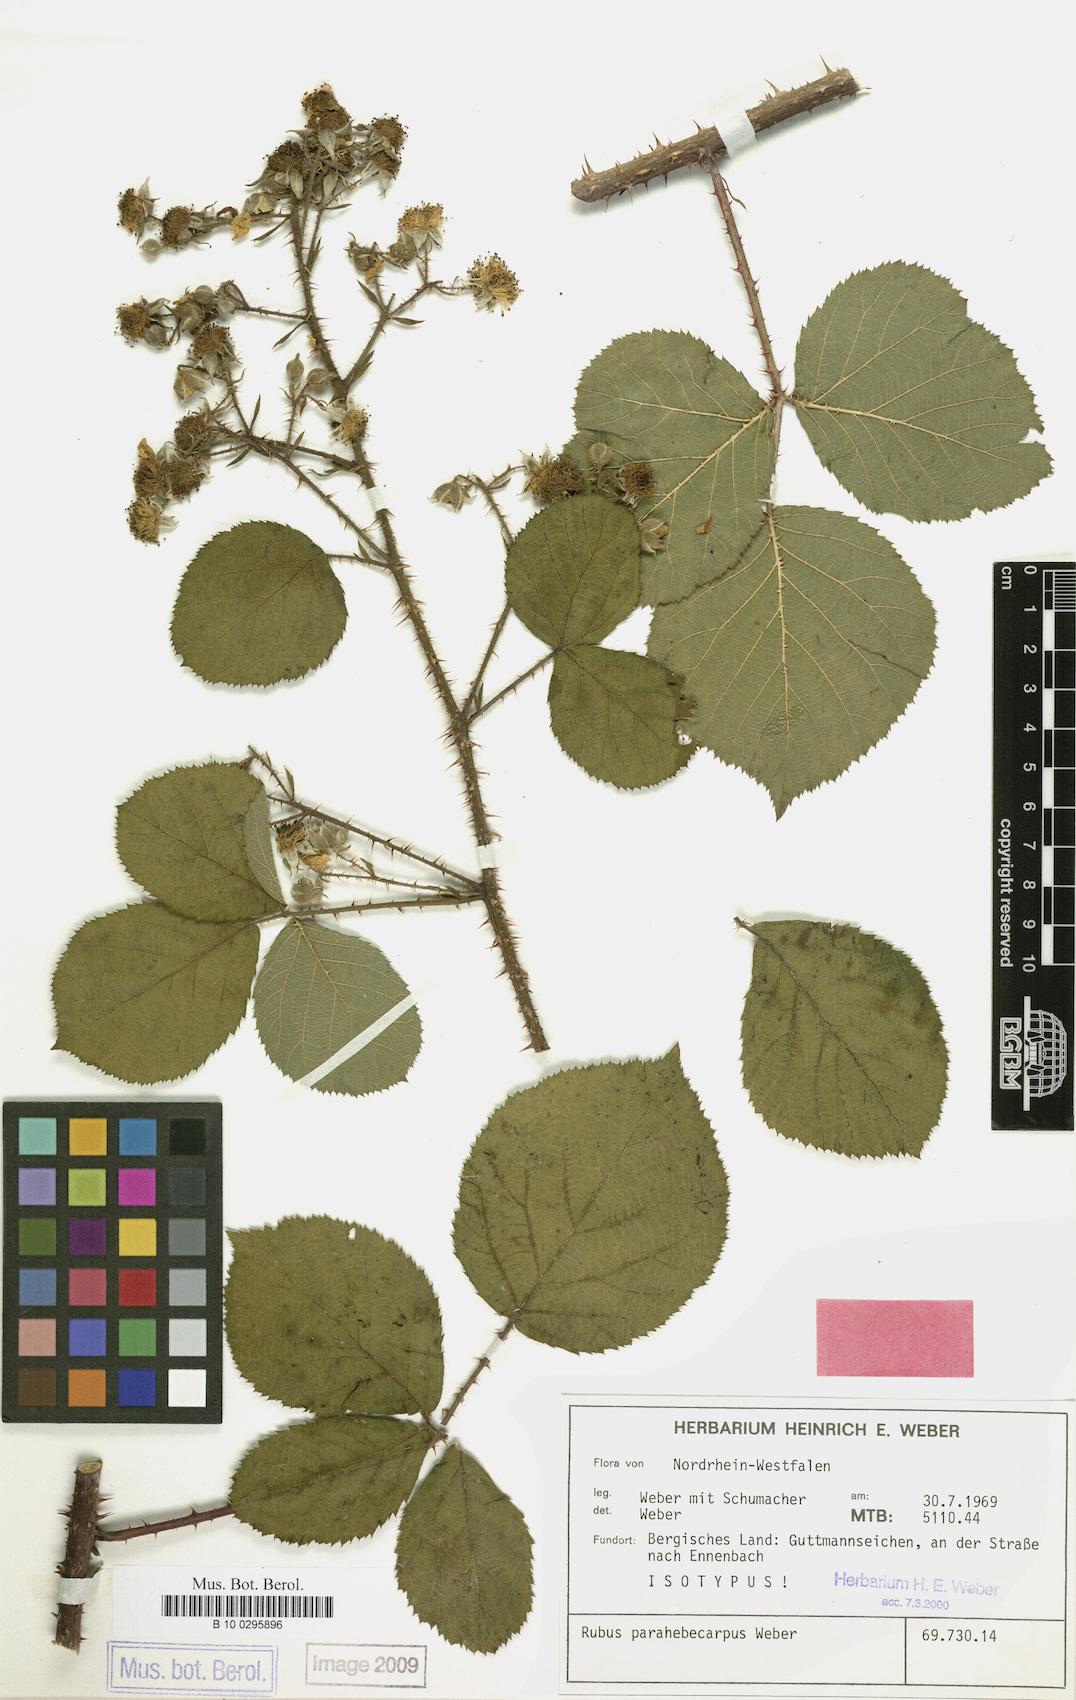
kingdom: Plantae
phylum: Tracheophyta
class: Magnoliopsida
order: Rosales
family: Rosaceae
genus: Rubus
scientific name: Rubus grandiflorus
